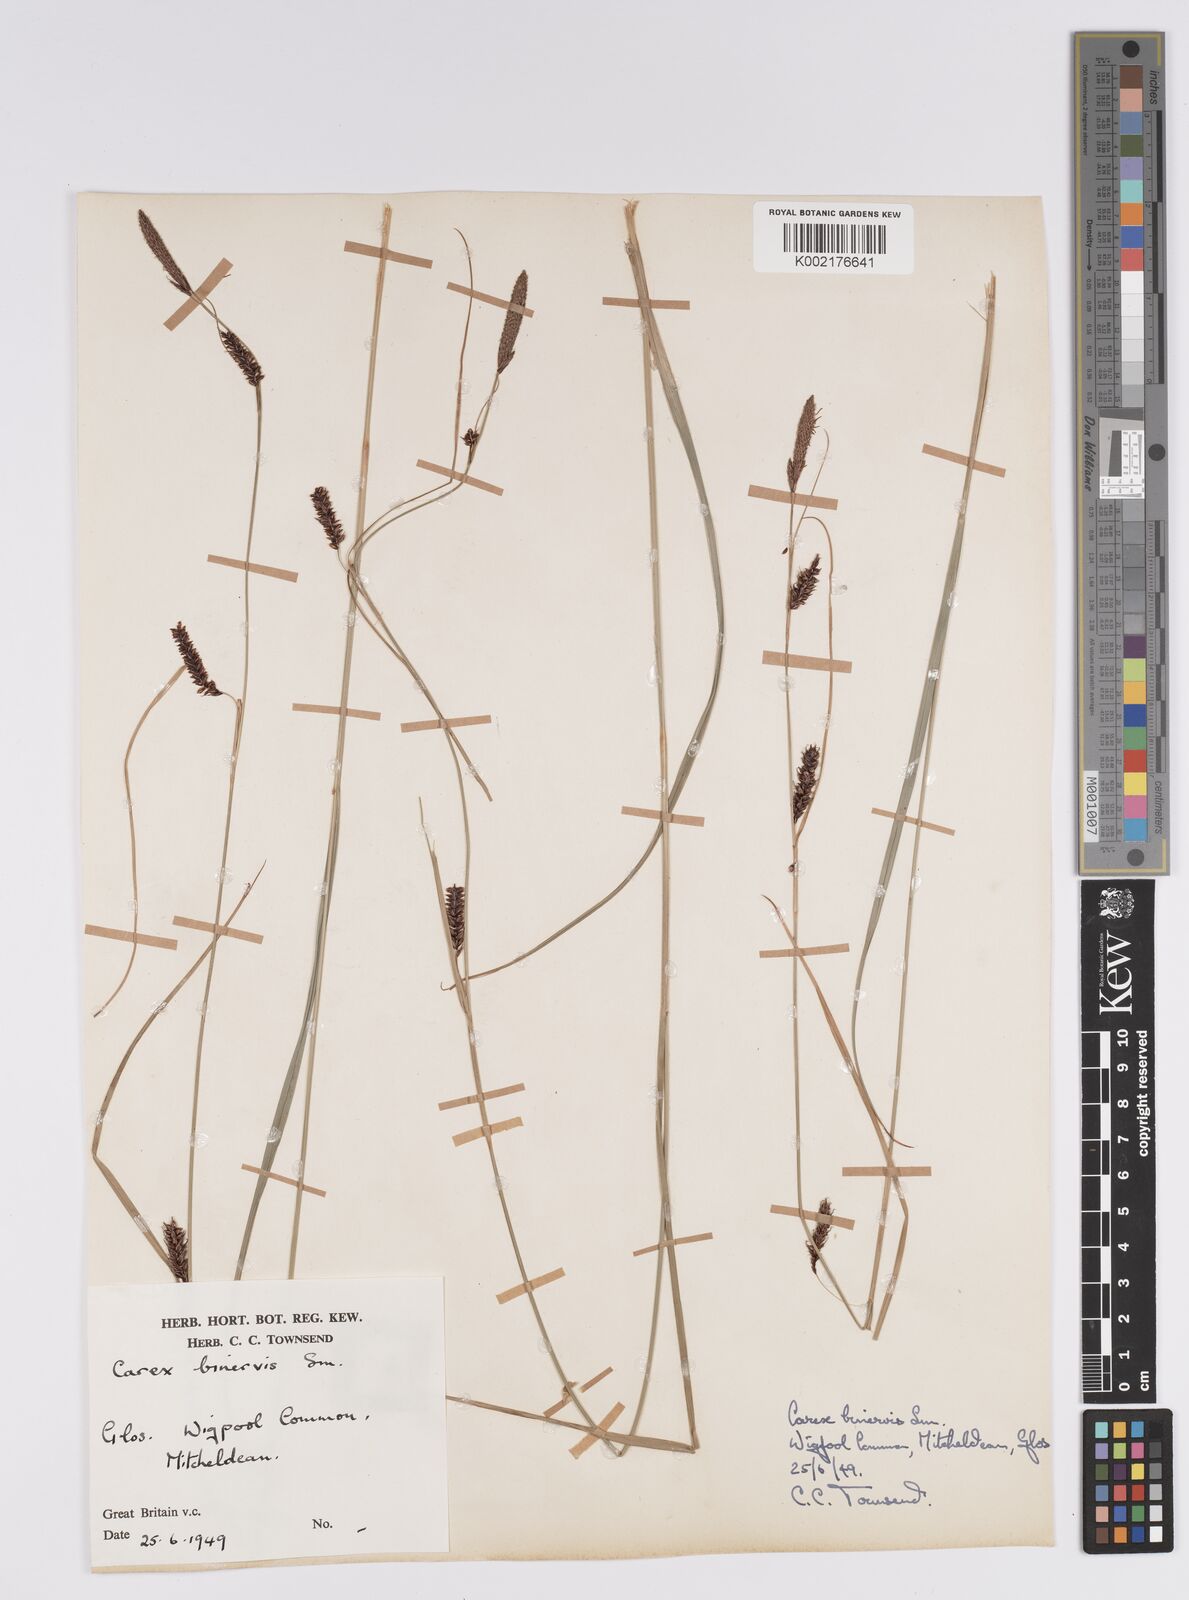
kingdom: Plantae
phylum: Tracheophyta
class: Liliopsida
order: Poales
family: Cyperaceae
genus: Carex
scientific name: Carex binervis
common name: Green-ribbed sedge
